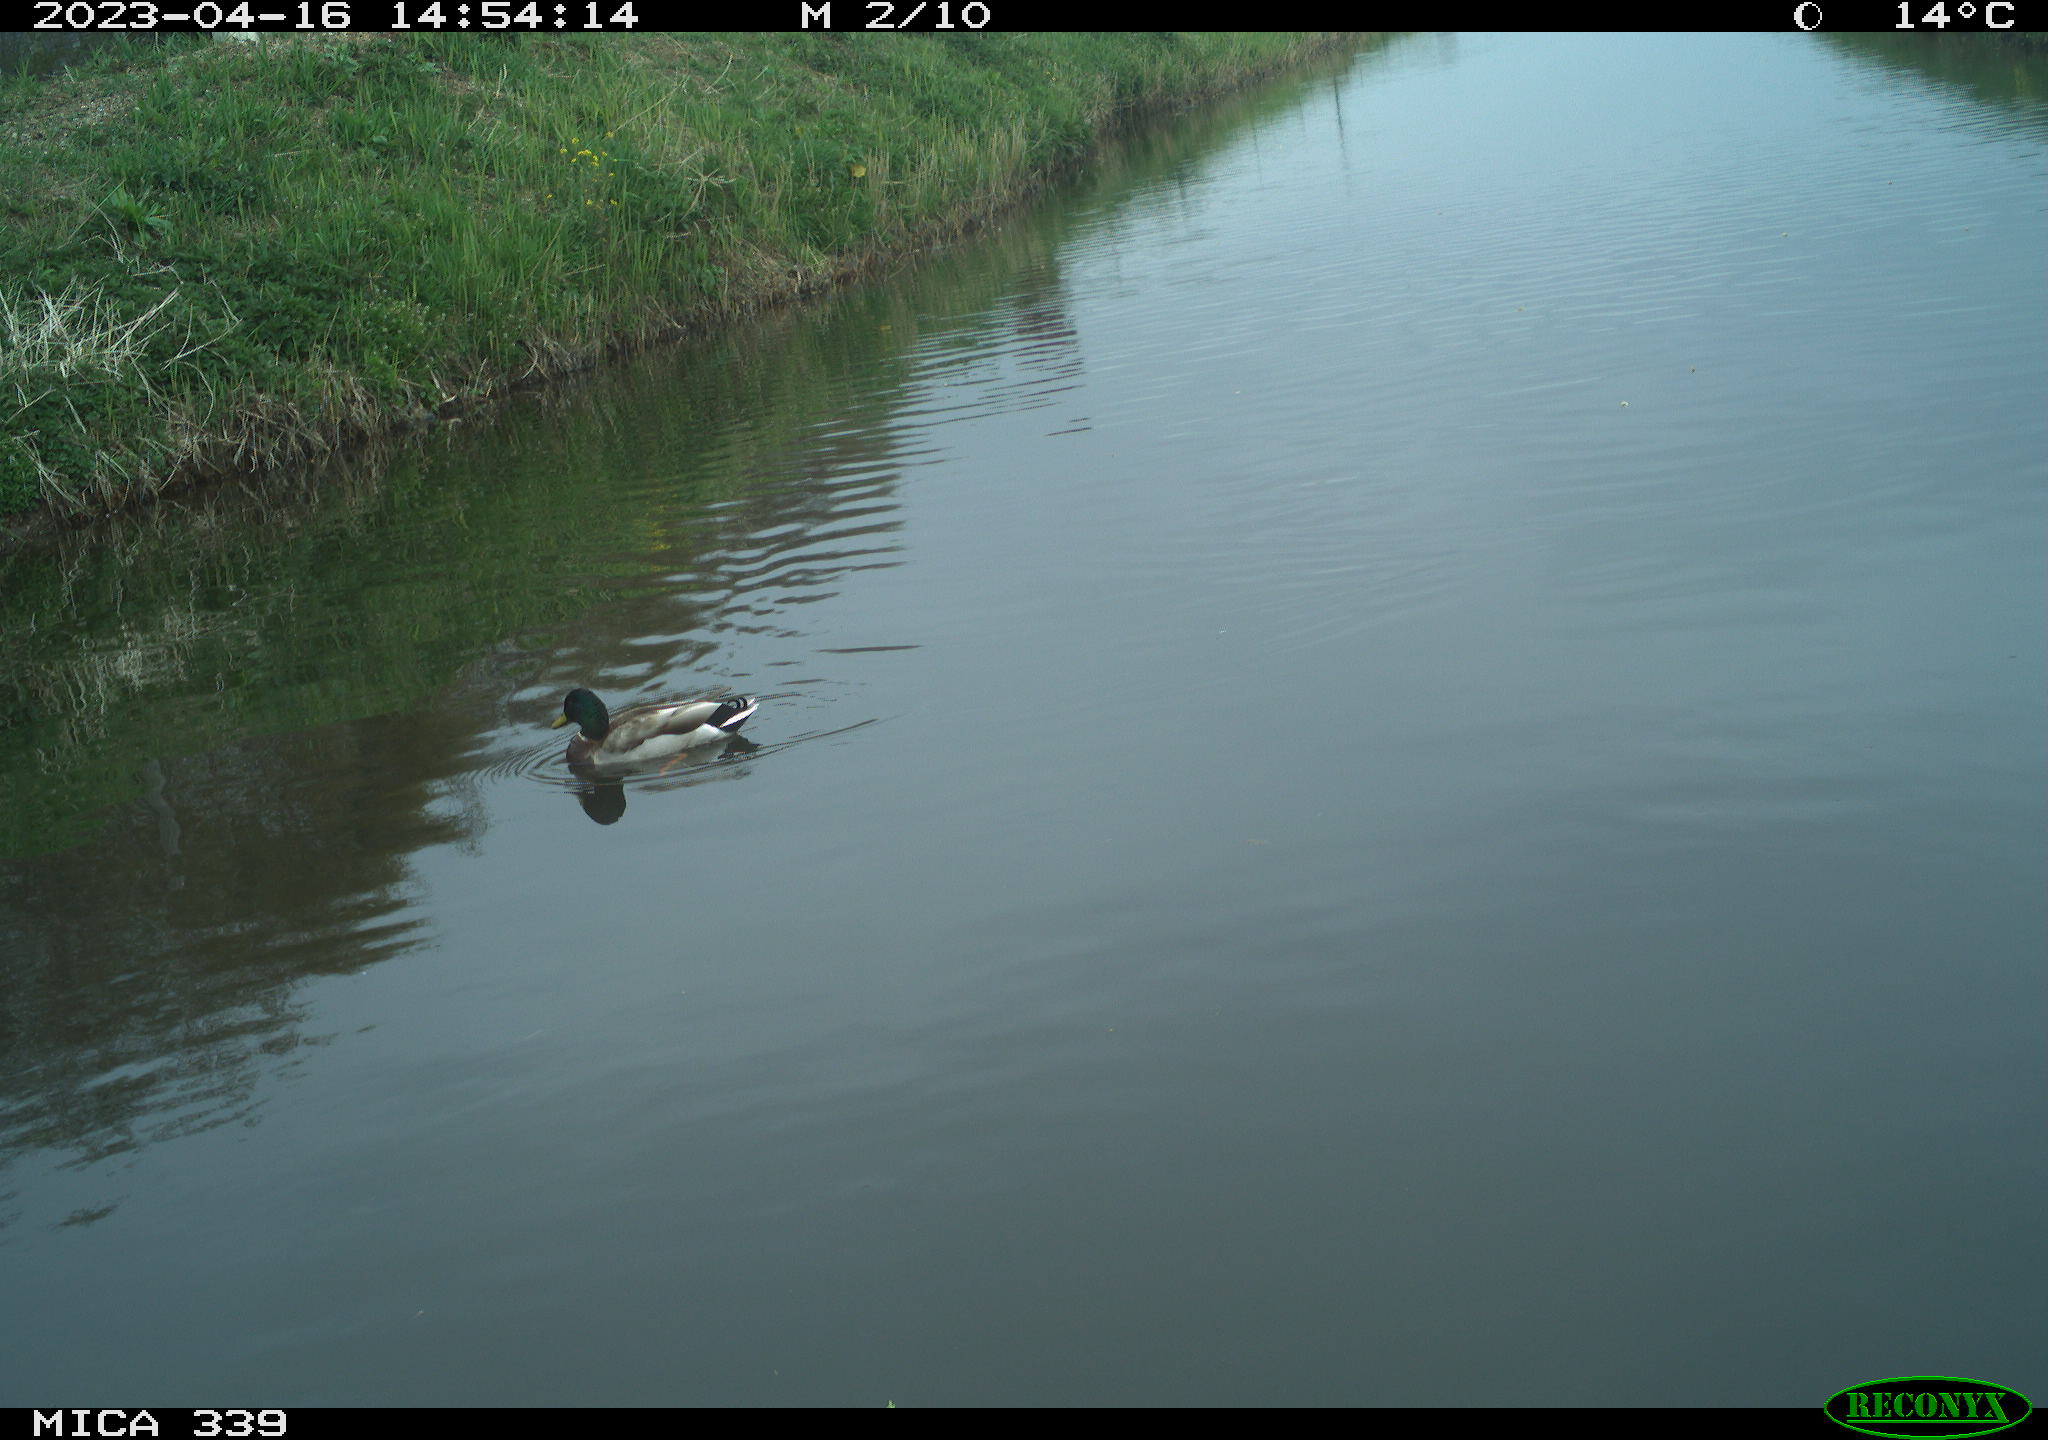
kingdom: Animalia
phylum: Chordata
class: Aves
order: Anseriformes
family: Anatidae
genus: Anas
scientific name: Anas
